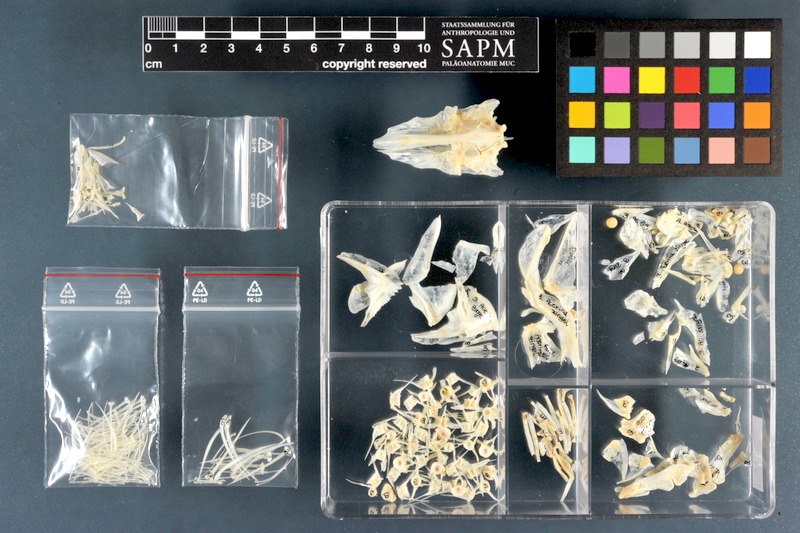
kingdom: Animalia
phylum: Chordata
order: Perciformes
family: Percidae
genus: Zingel
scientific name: Zingel zingel
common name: Zingel
